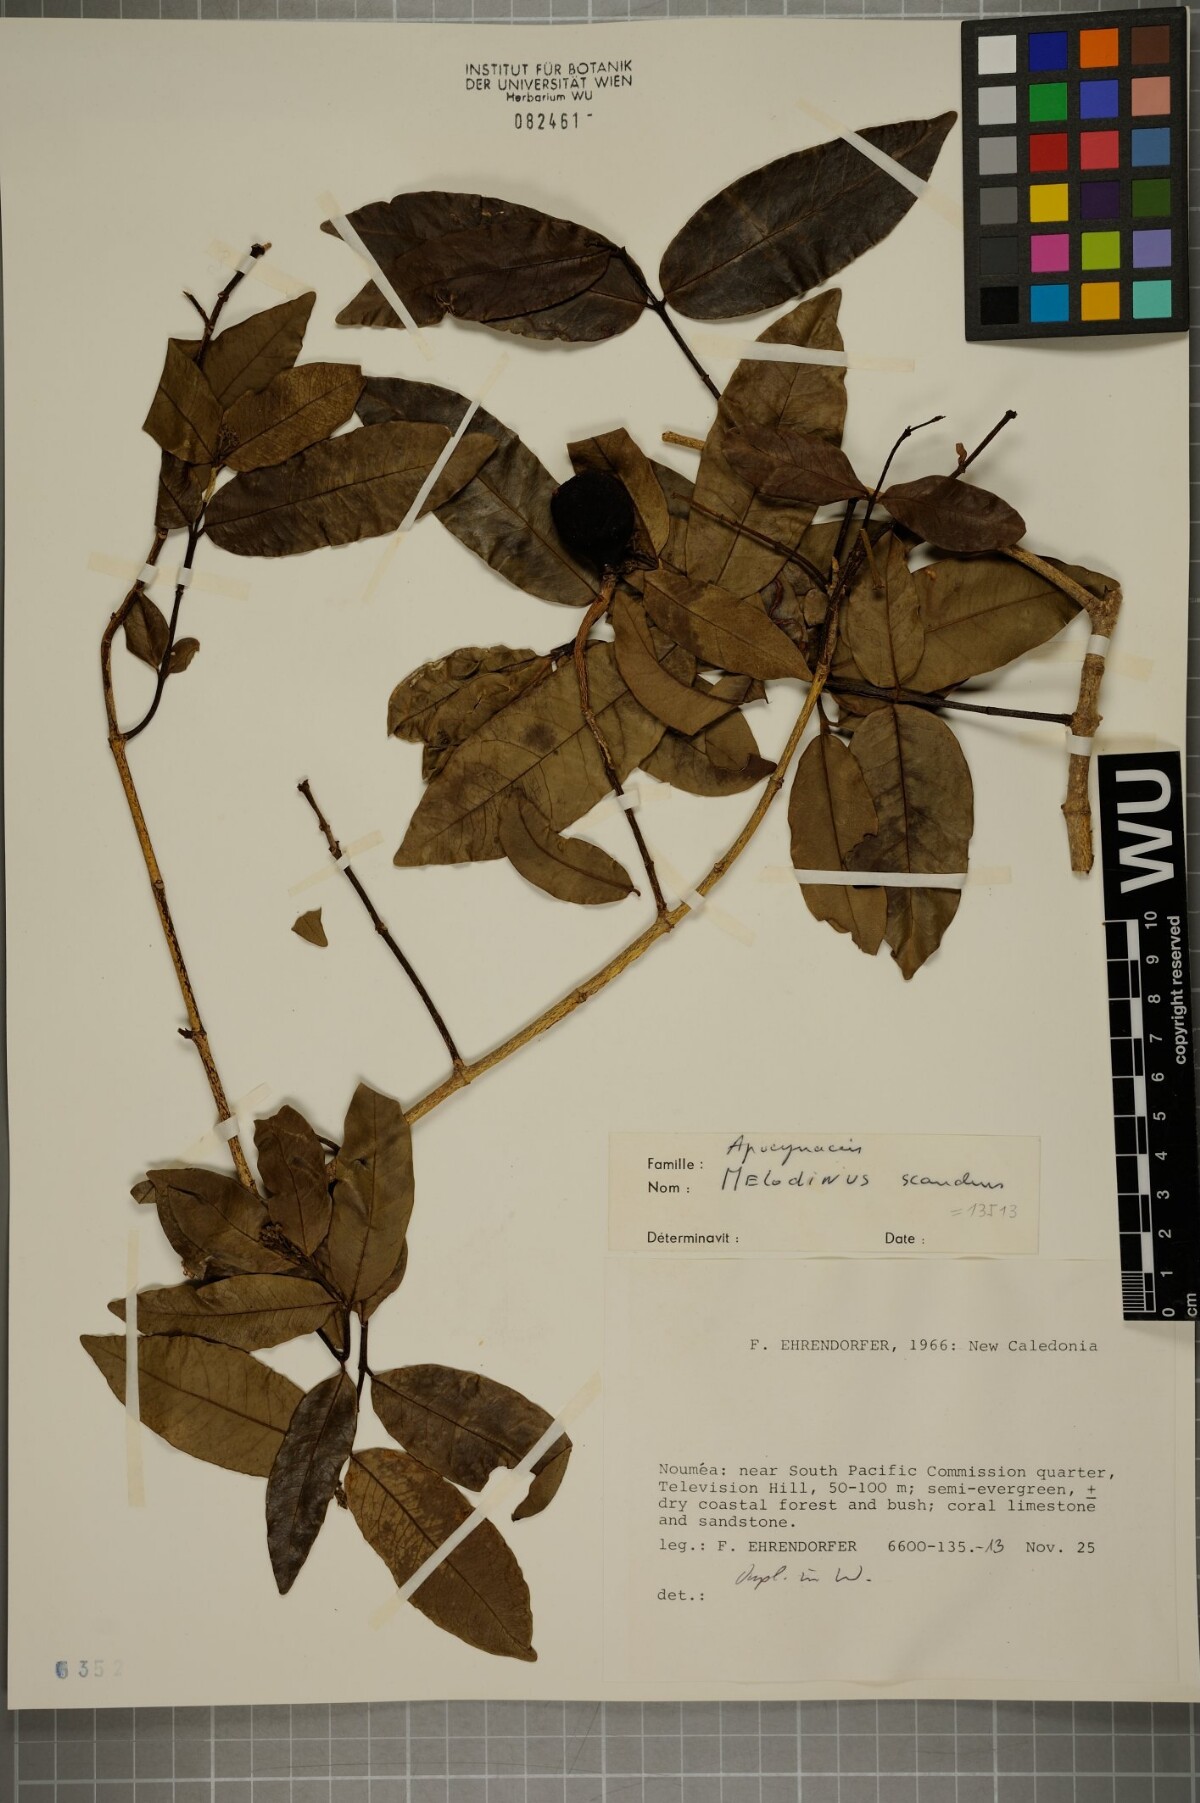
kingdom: Plantae
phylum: Tracheophyta
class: Magnoliopsida
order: Gentianales
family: Apocynaceae
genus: Melodinus
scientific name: Melodinus scandens
